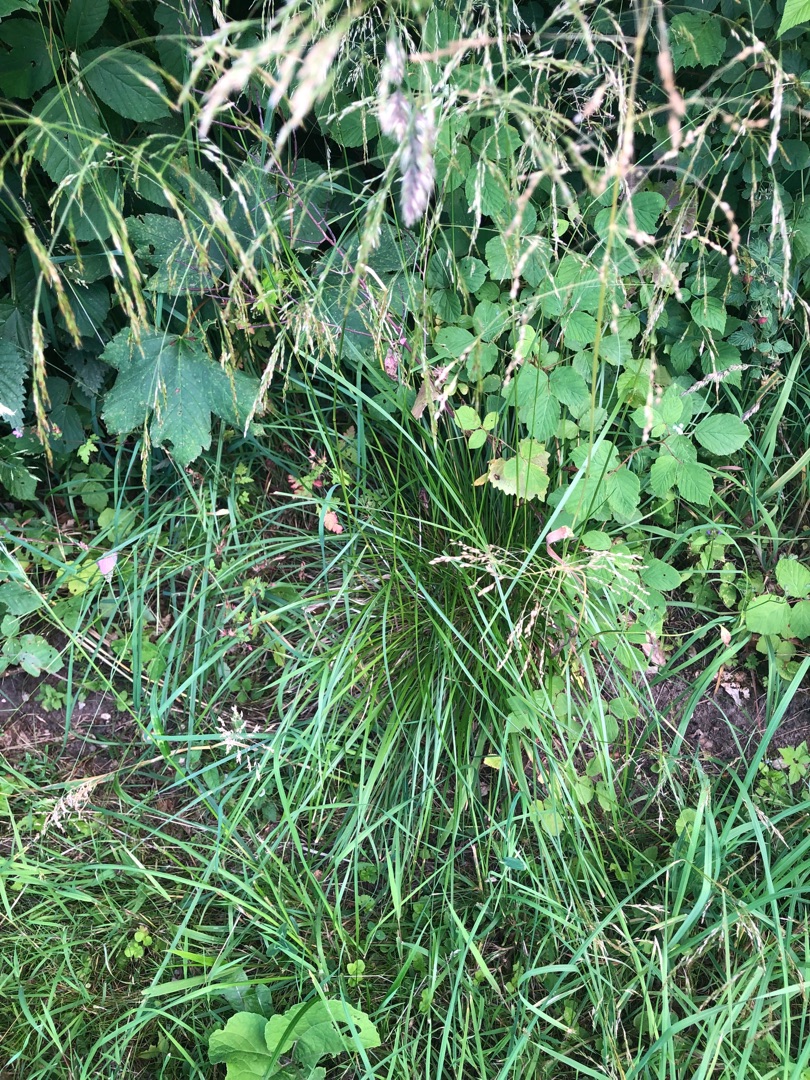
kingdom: Plantae
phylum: Tracheophyta
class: Liliopsida
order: Poales
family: Poaceae
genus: Deschampsia
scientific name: Deschampsia cespitosa
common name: Mose-bunke
